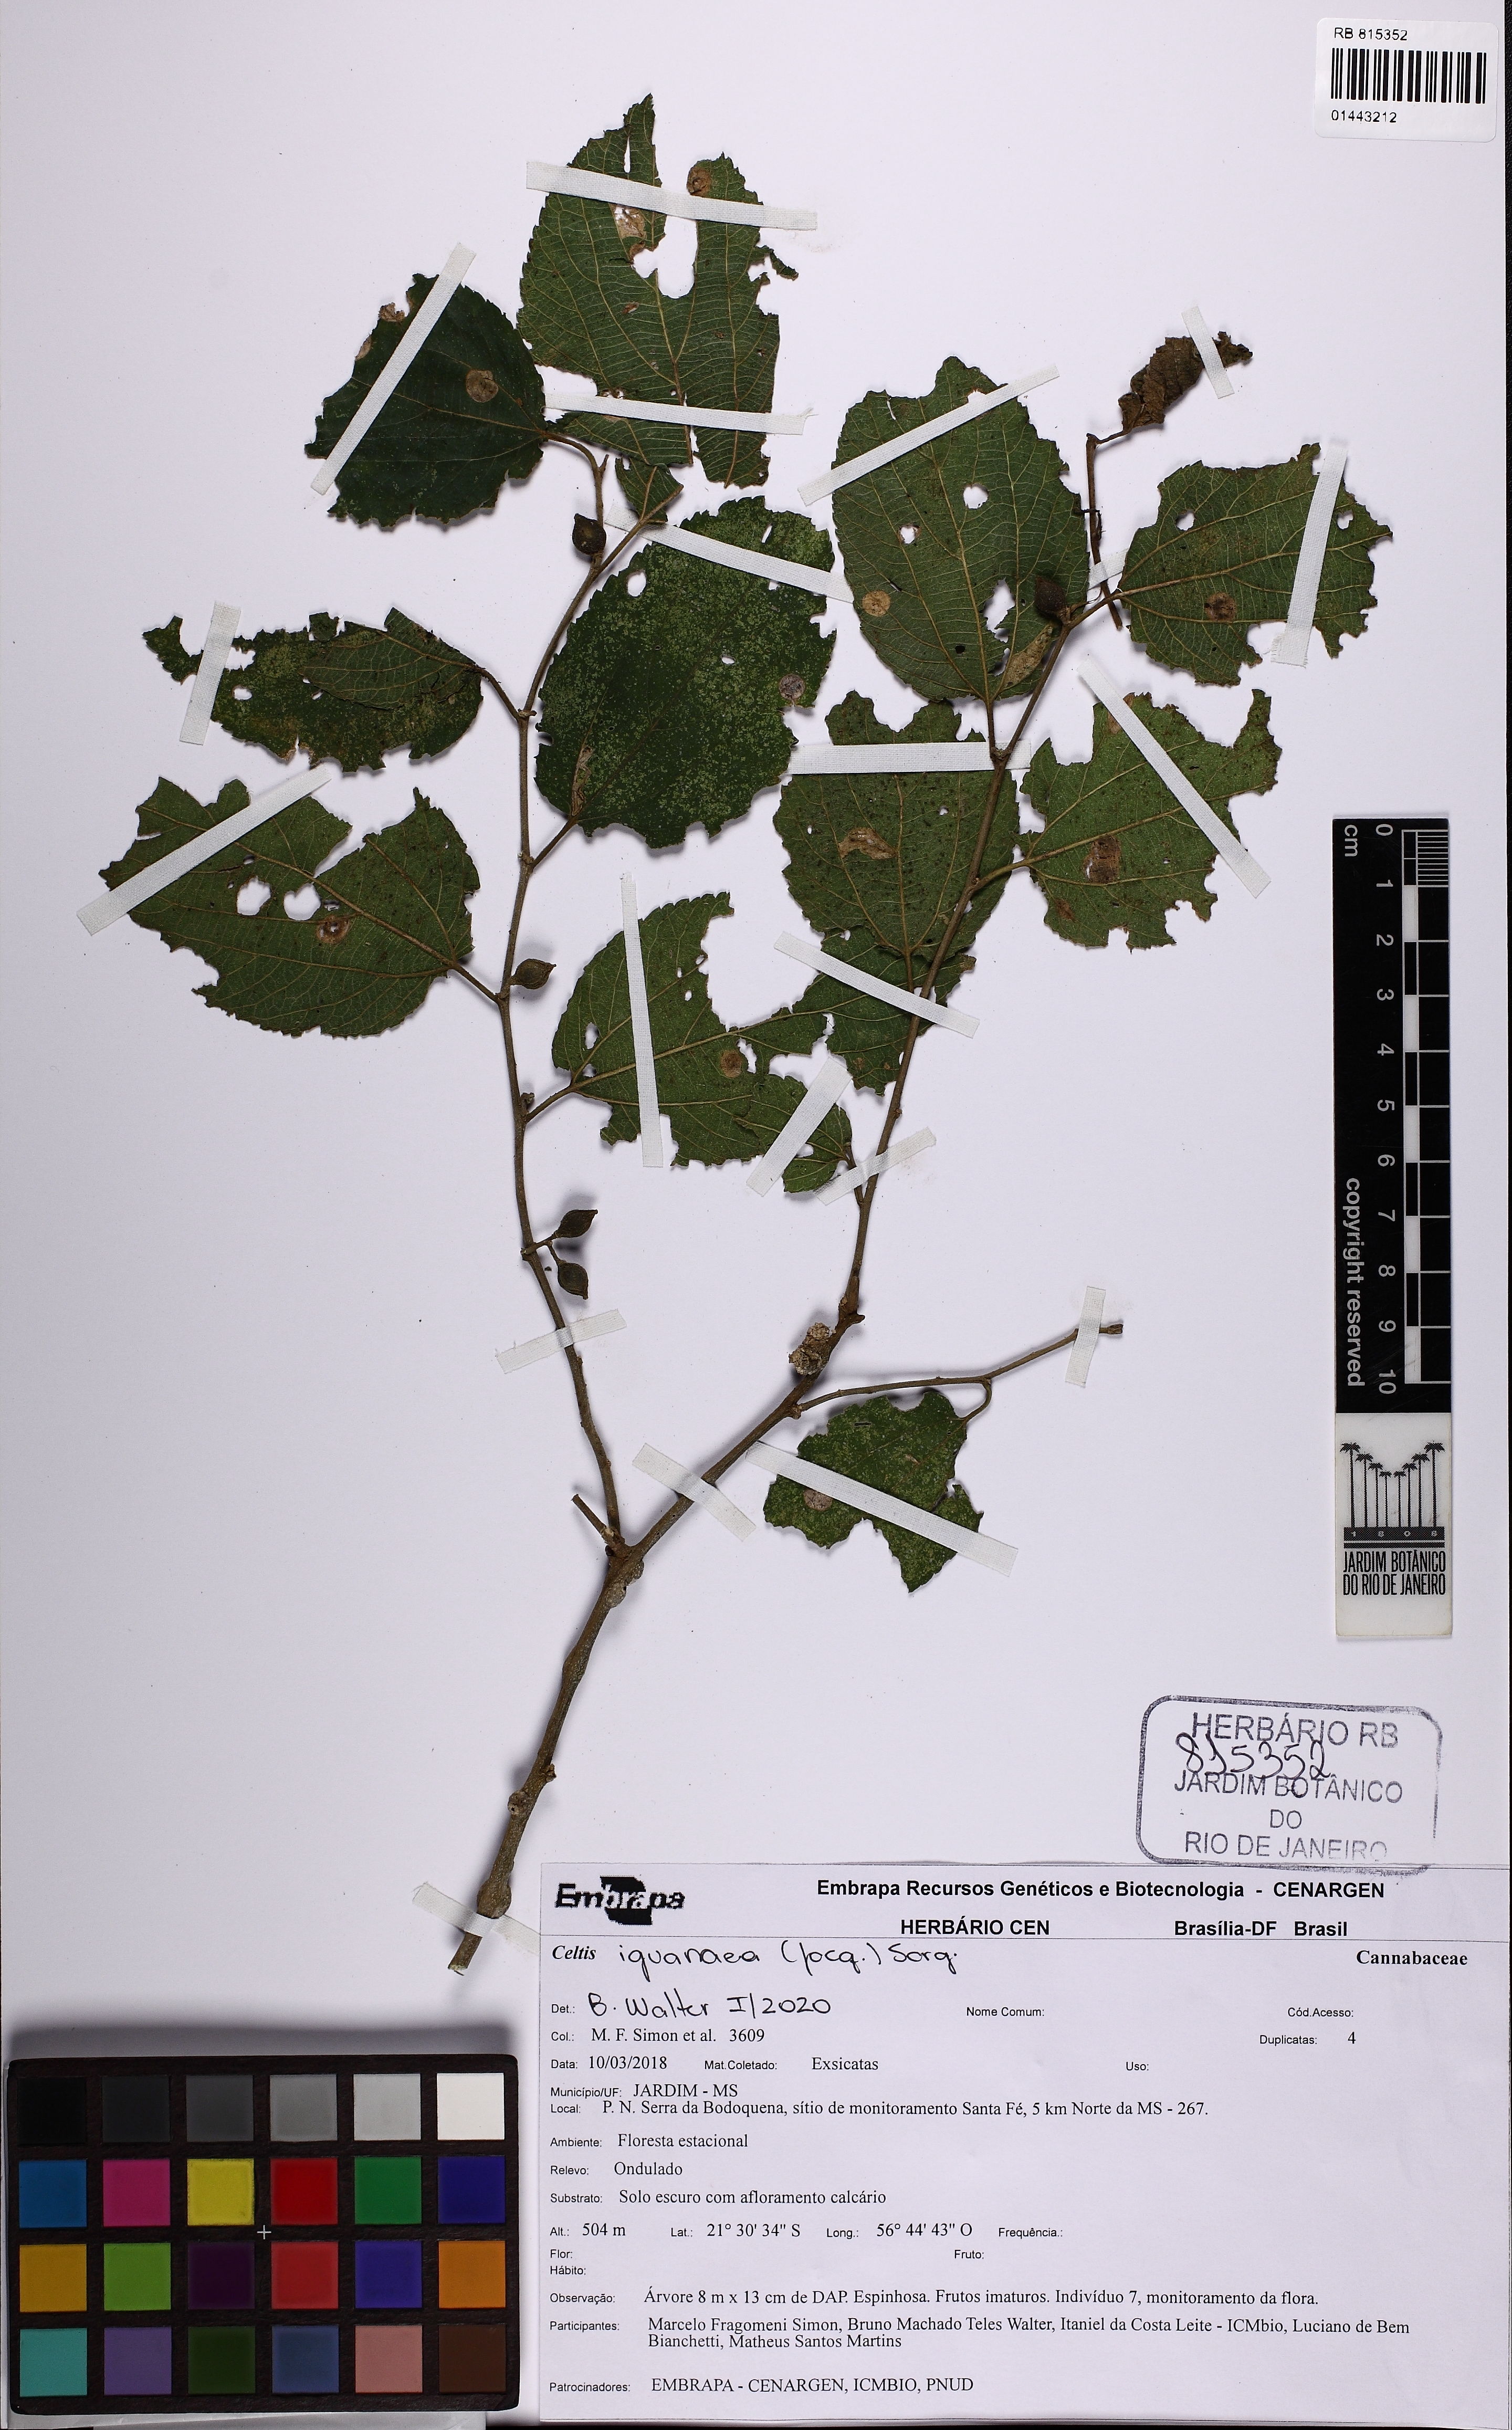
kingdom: Plantae
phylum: Tracheophyta
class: Magnoliopsida
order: Rosales
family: Cannabaceae
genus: Celtis
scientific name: Celtis iguanaea
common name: Iguana hackberry
